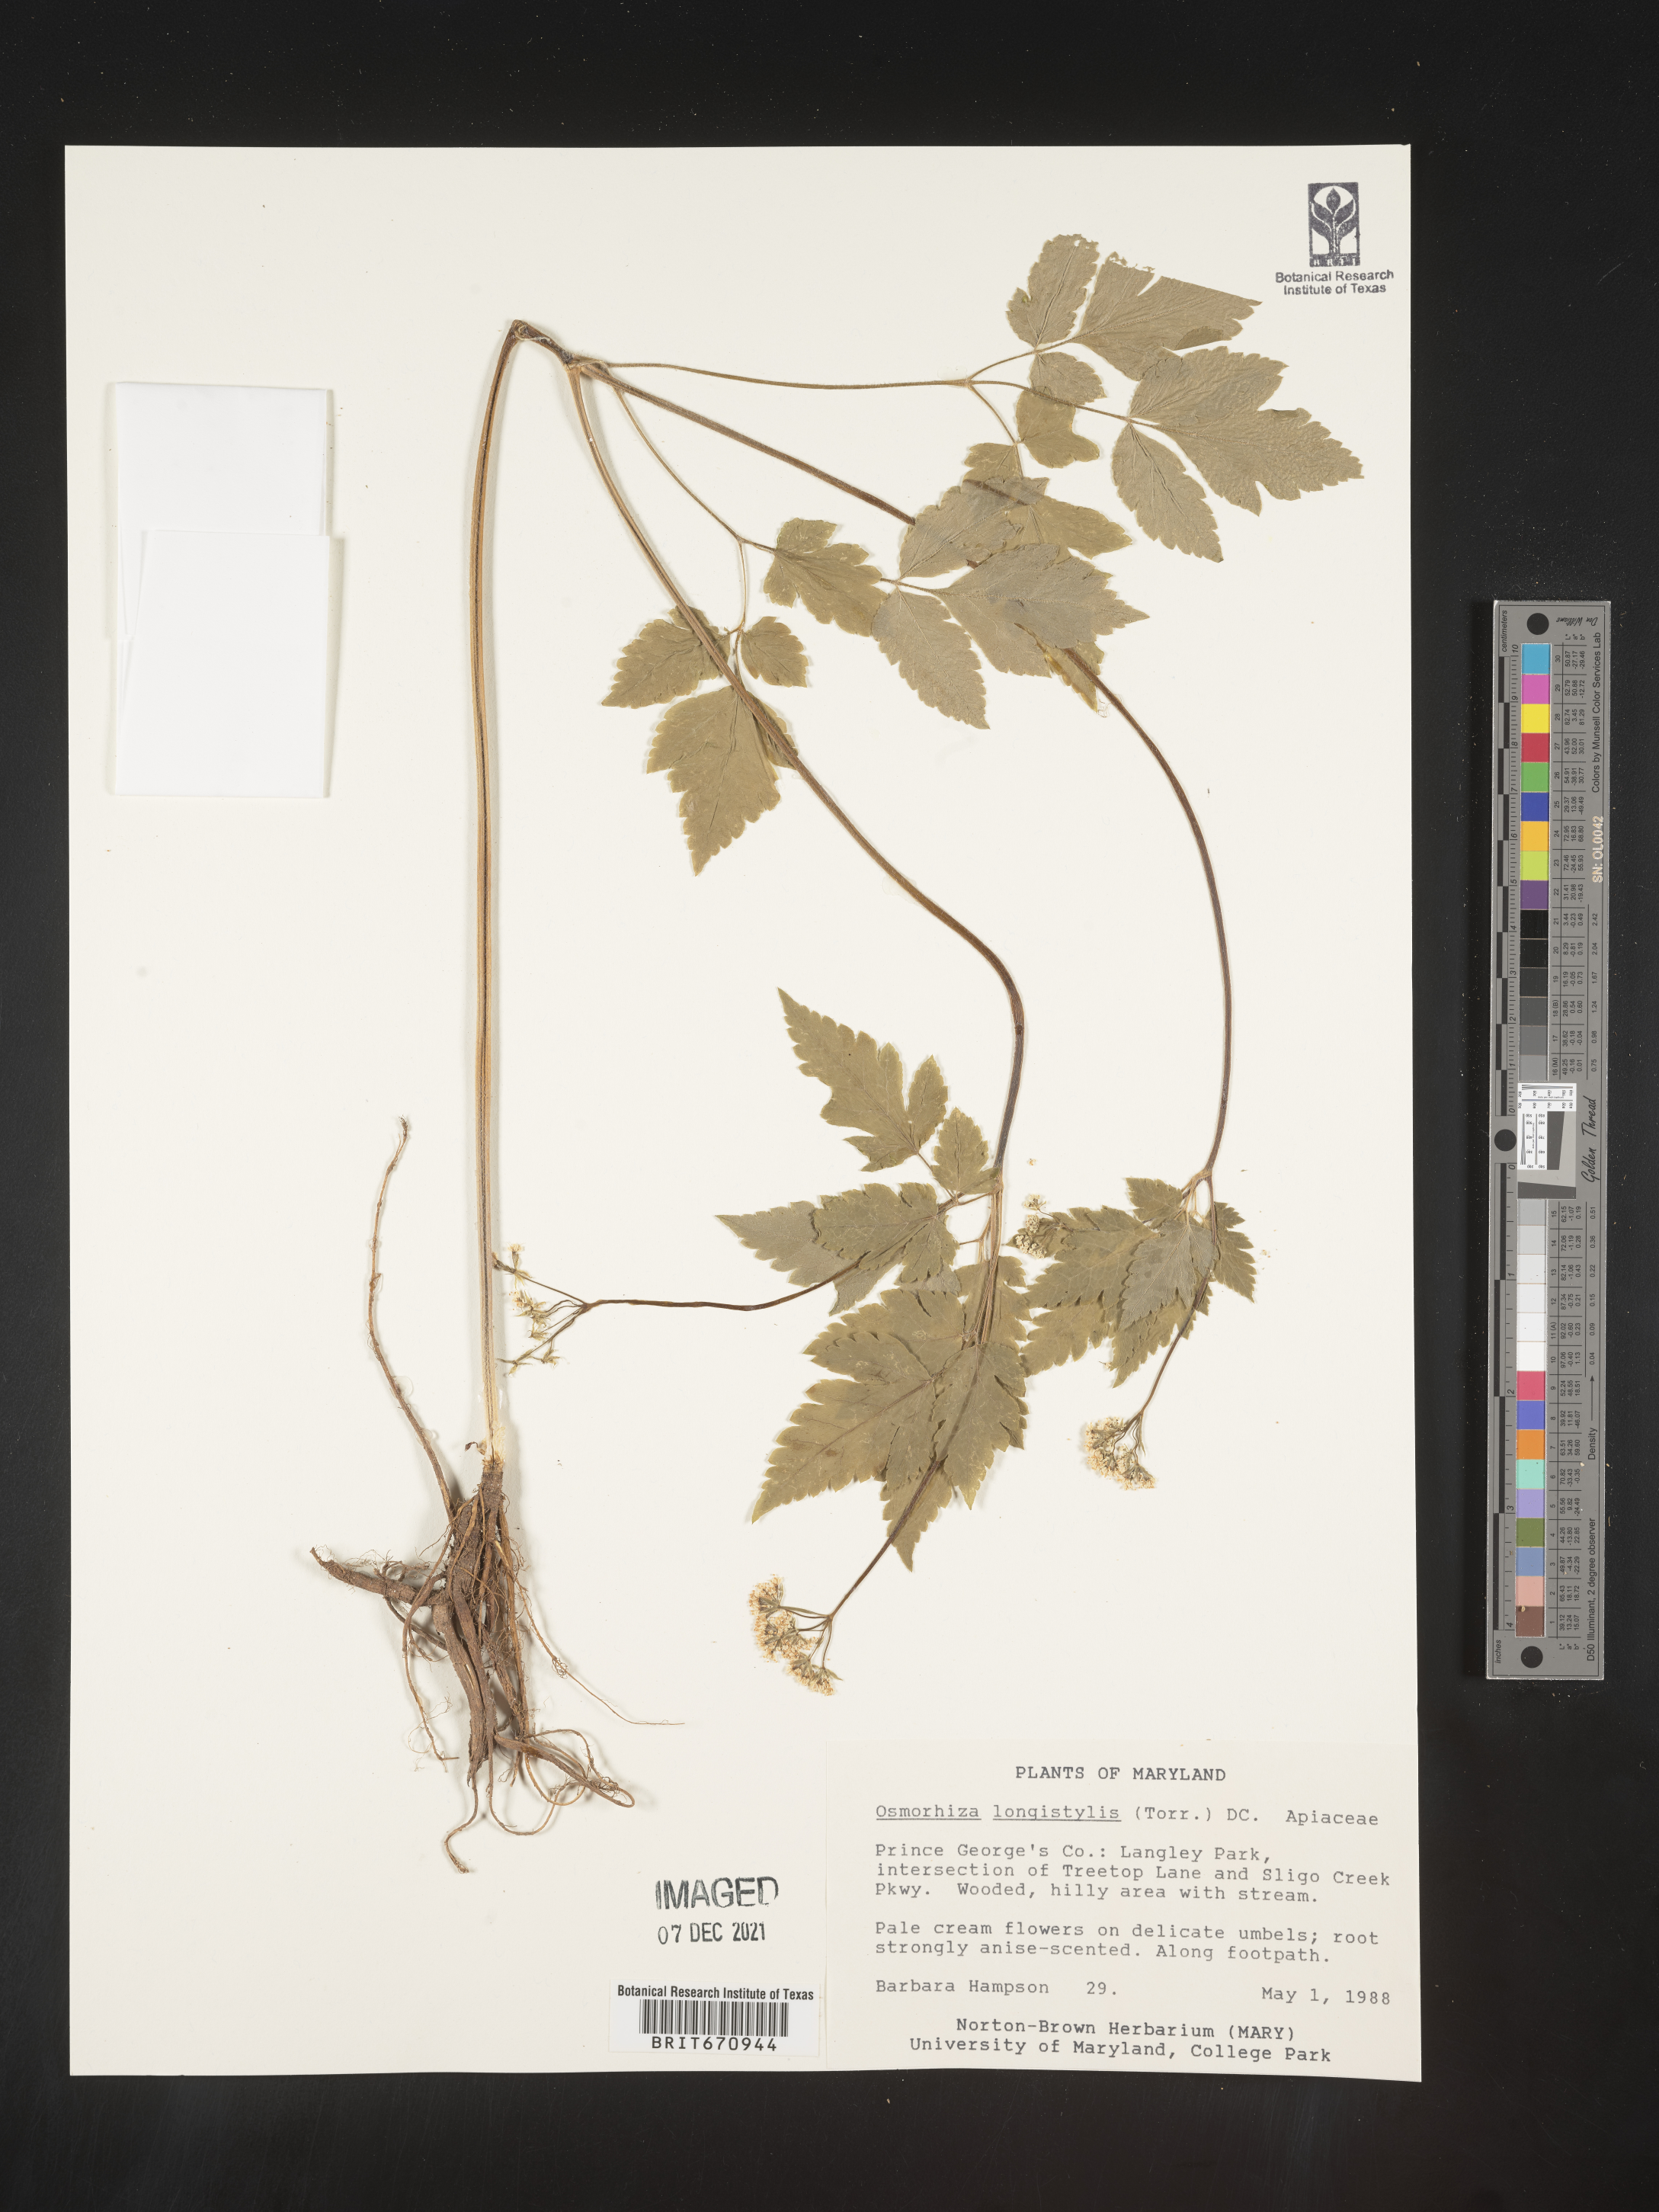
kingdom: Plantae
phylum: Tracheophyta
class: Magnoliopsida
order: Apiales
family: Apiaceae
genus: Osmorhiza
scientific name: Osmorhiza longistylis
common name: Smooth sweet cicely
